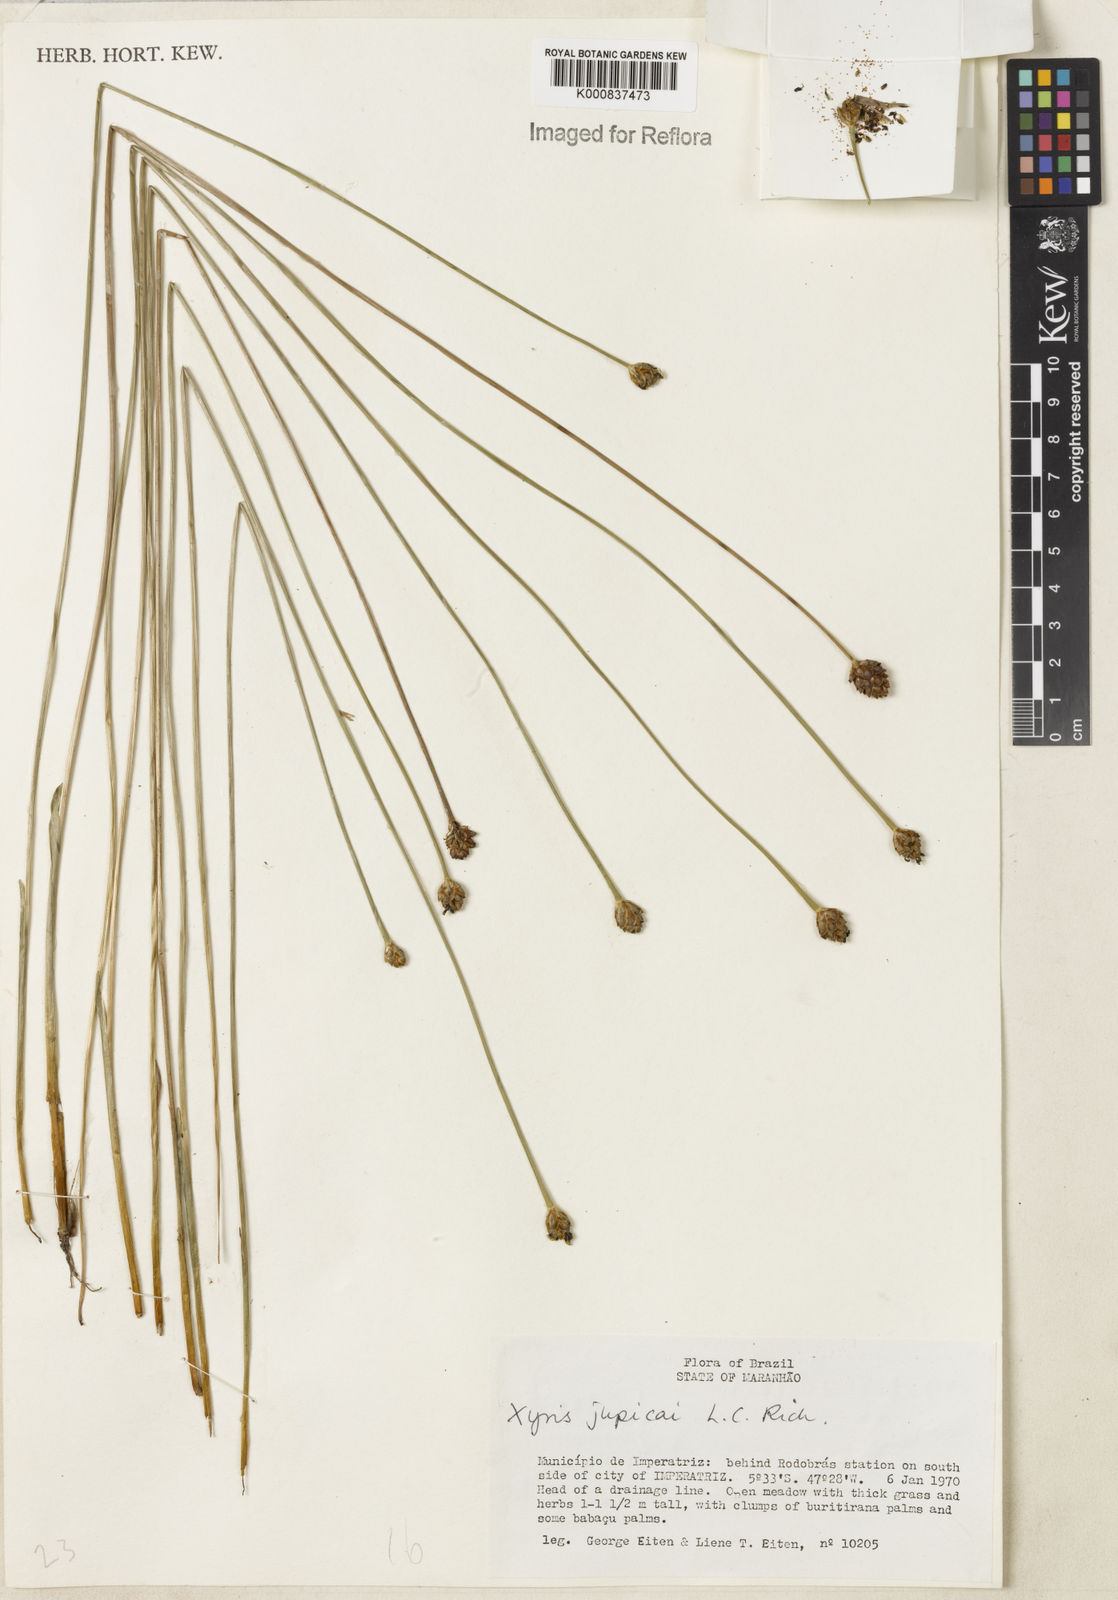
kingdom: Plantae
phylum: Tracheophyta
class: Liliopsida
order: Poales
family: Xyridaceae
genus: Xyris
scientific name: Xyris jupicai
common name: Richard's yelloweyed grass
